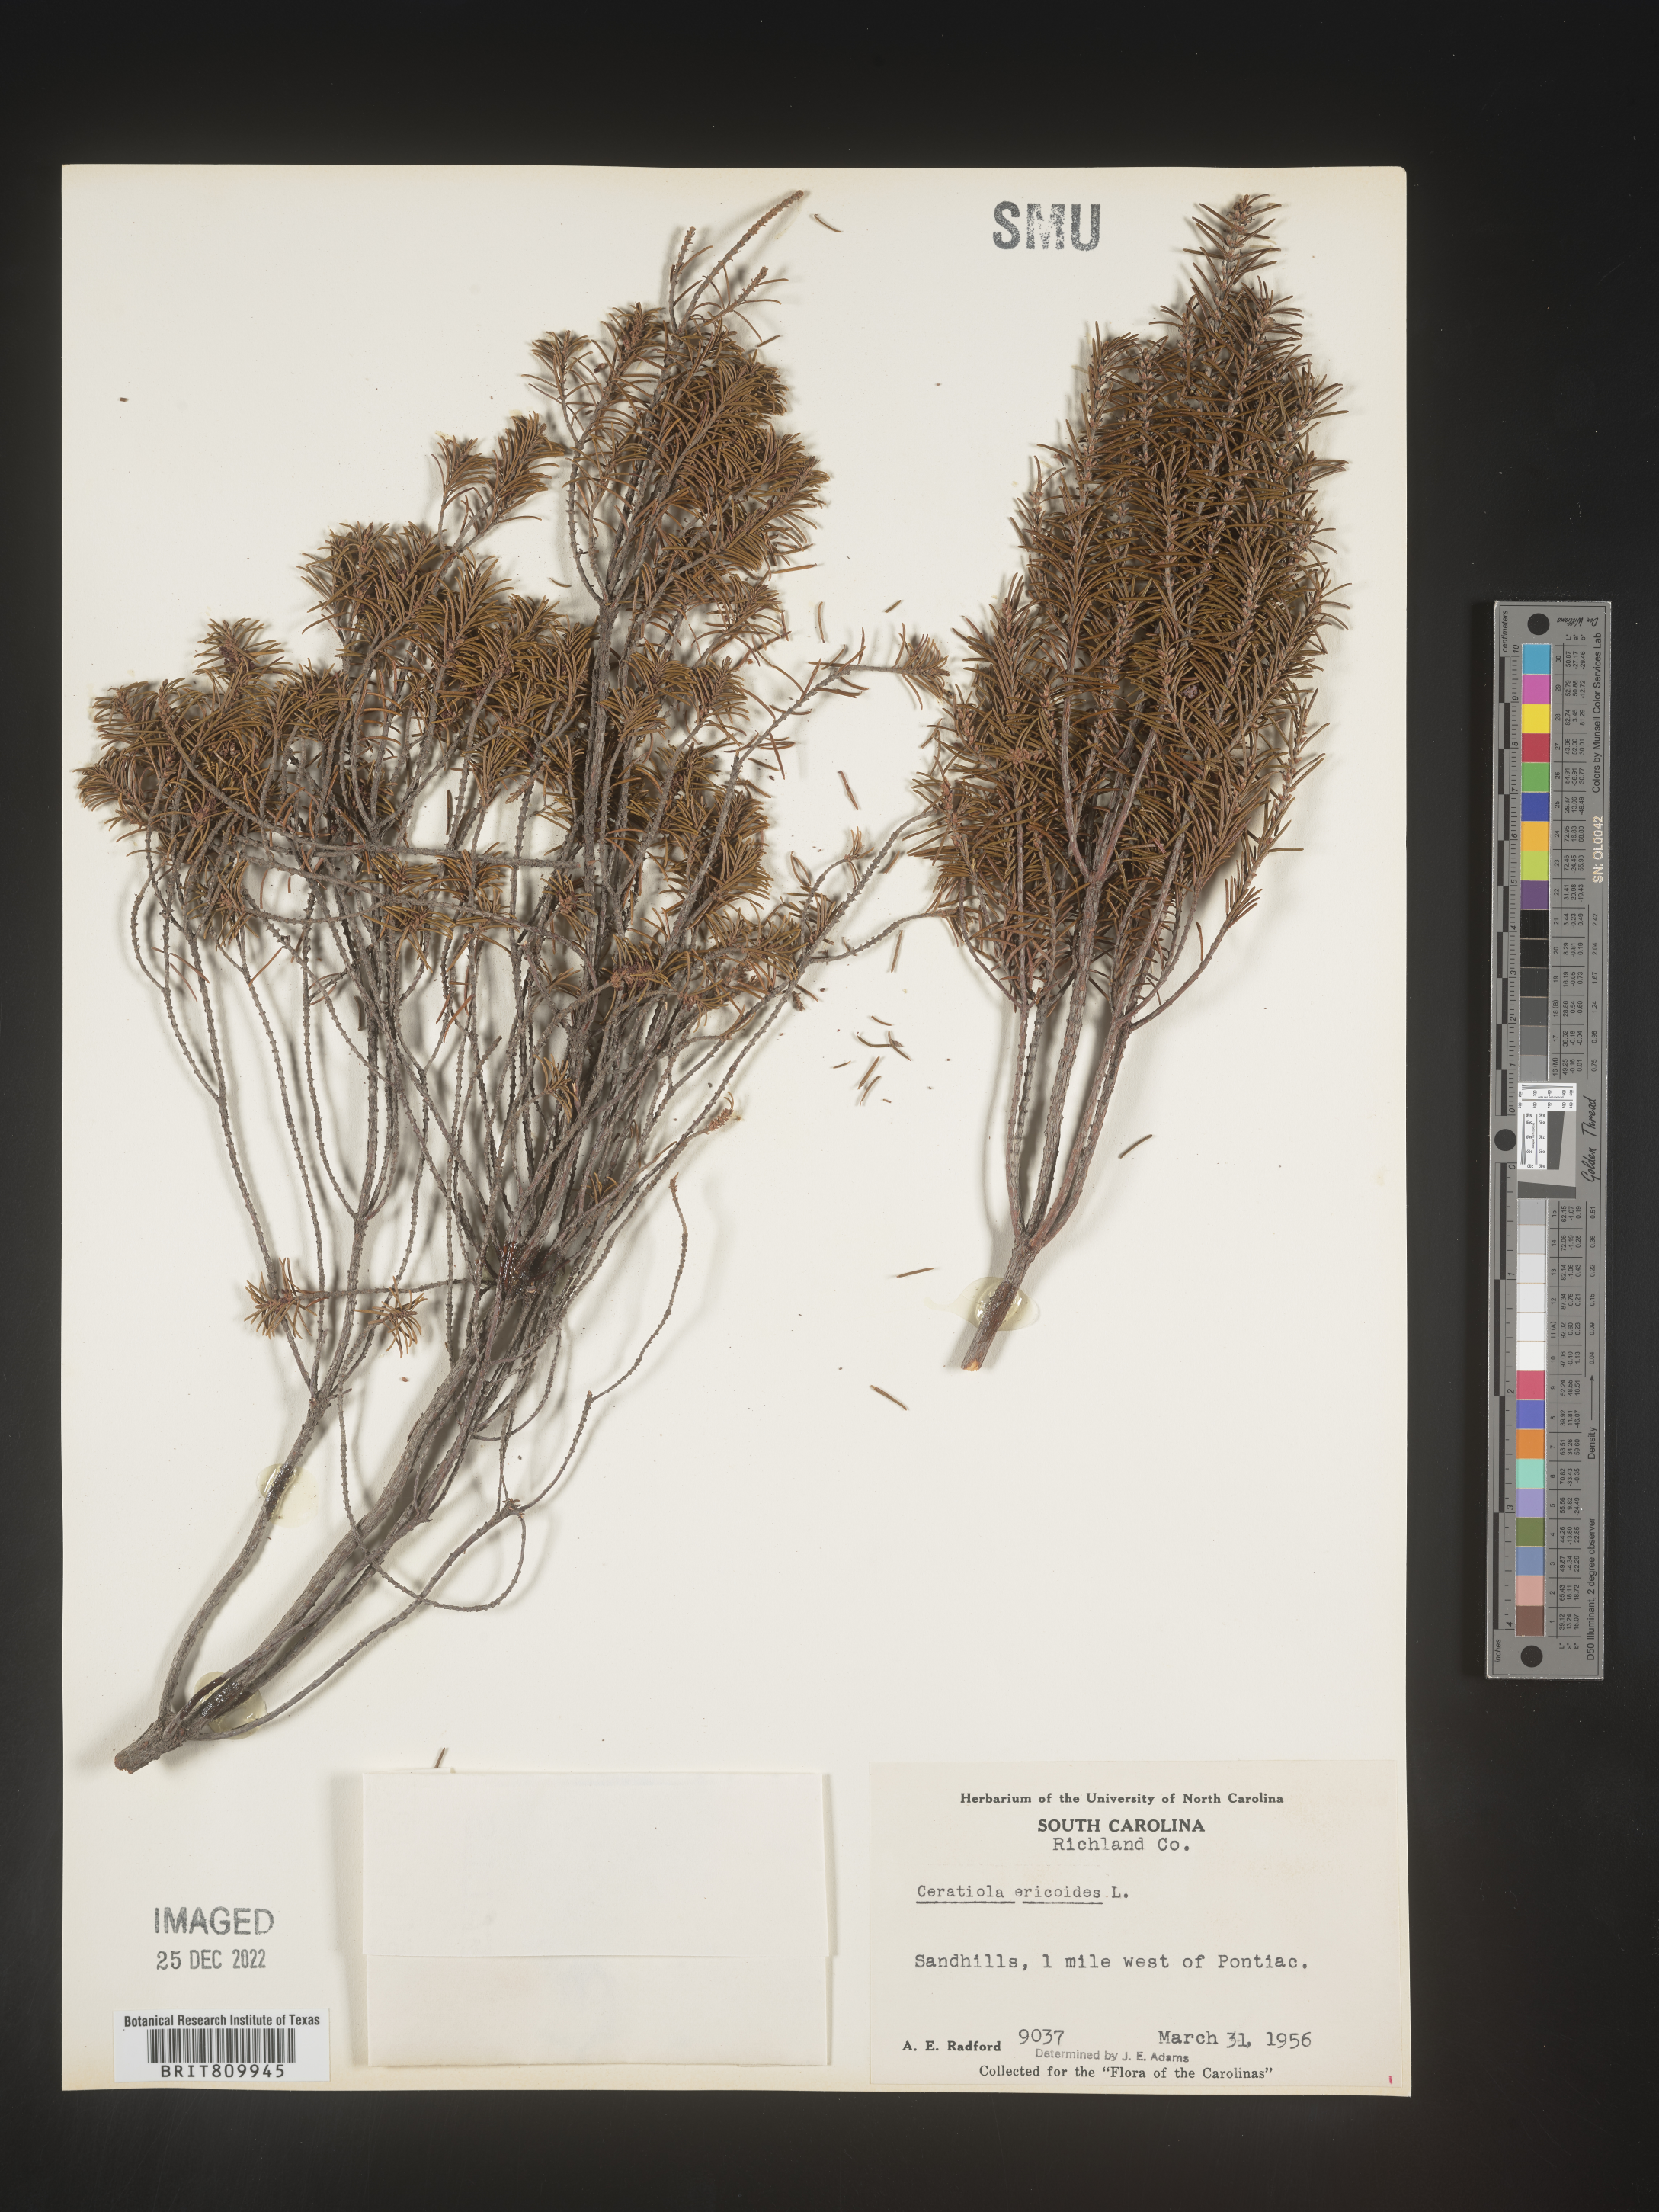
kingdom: Plantae
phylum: Tracheophyta
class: Magnoliopsida
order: Ericales
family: Ericaceae
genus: Ceratiola
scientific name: Ceratiola ericoides
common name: Sandhill-rosemary
